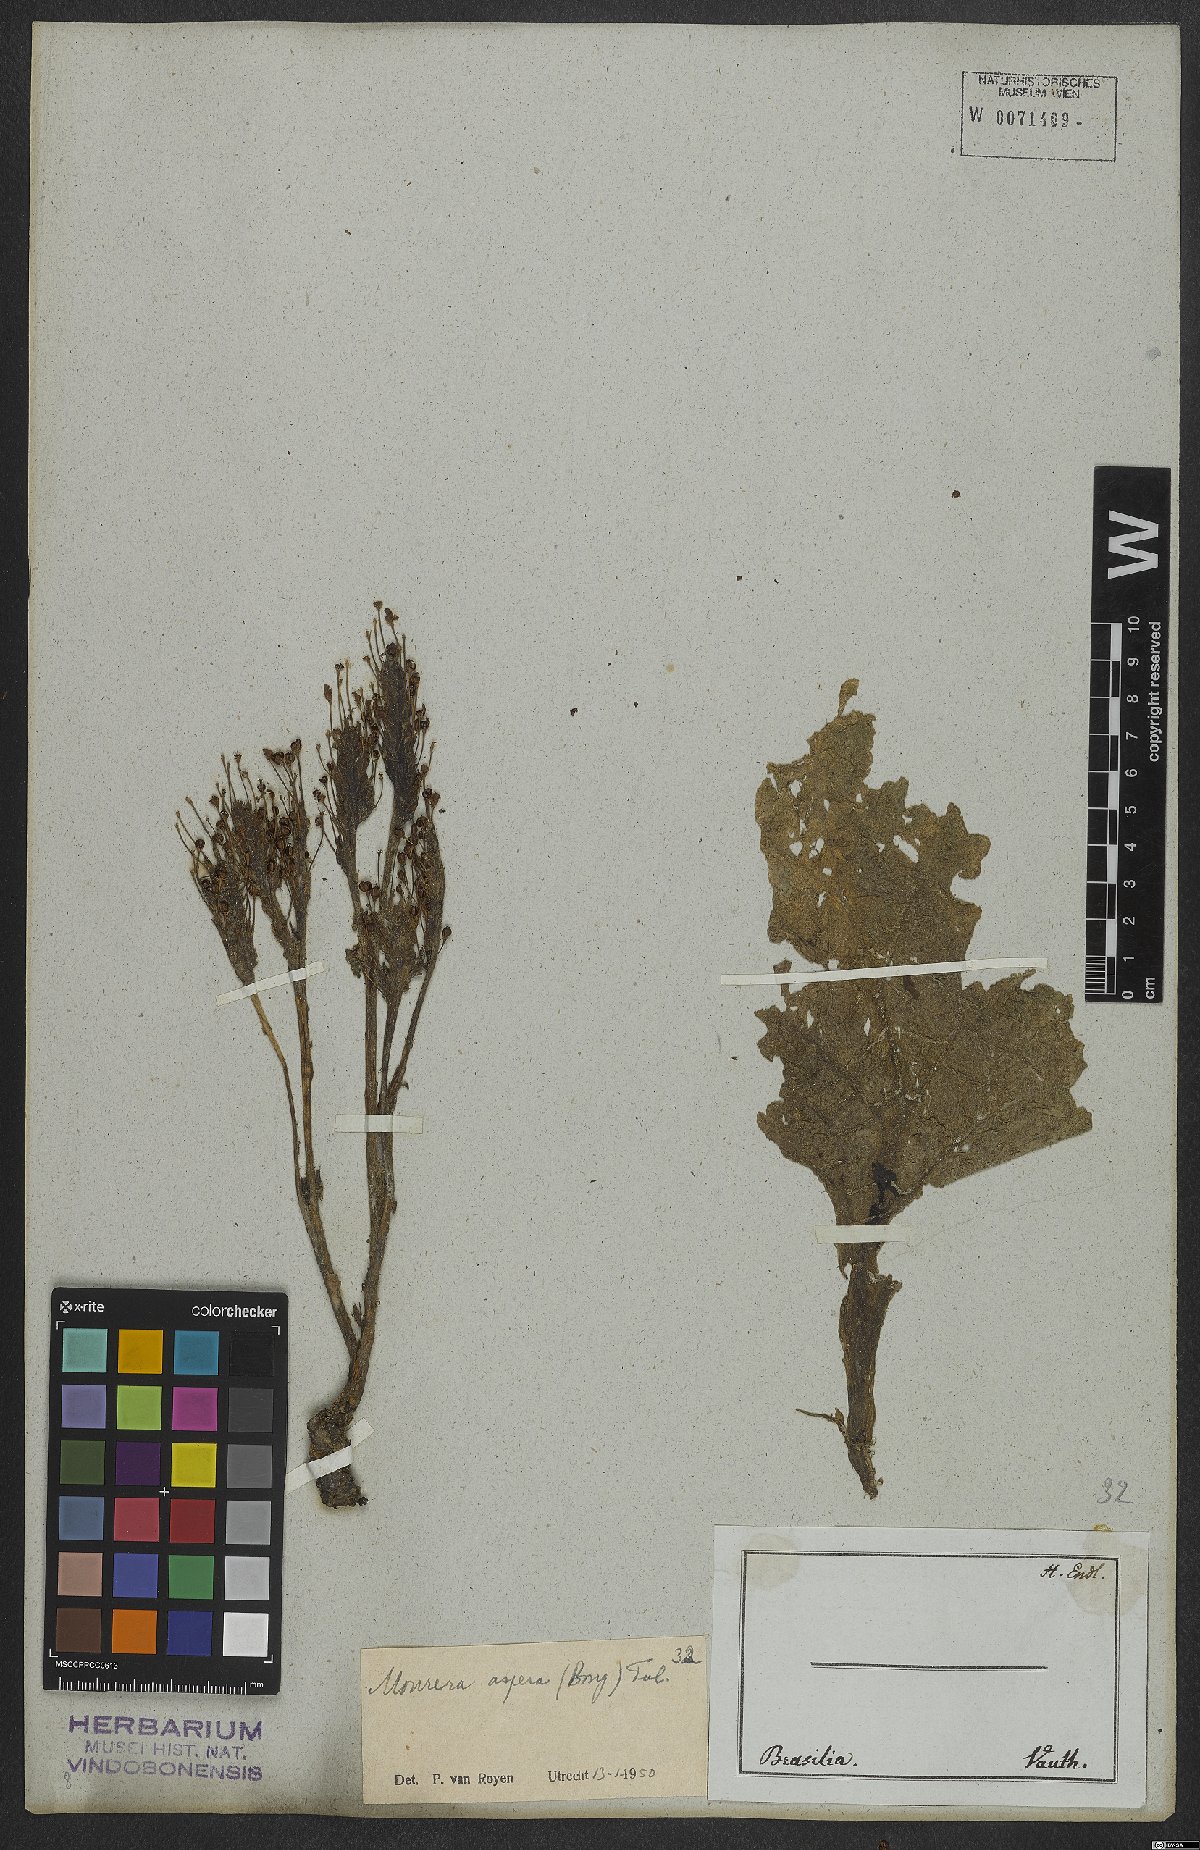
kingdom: Plantae
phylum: Tracheophyta
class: Magnoliopsida
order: Malpighiales
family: Podostemaceae
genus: Mourera
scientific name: Mourera aspera
